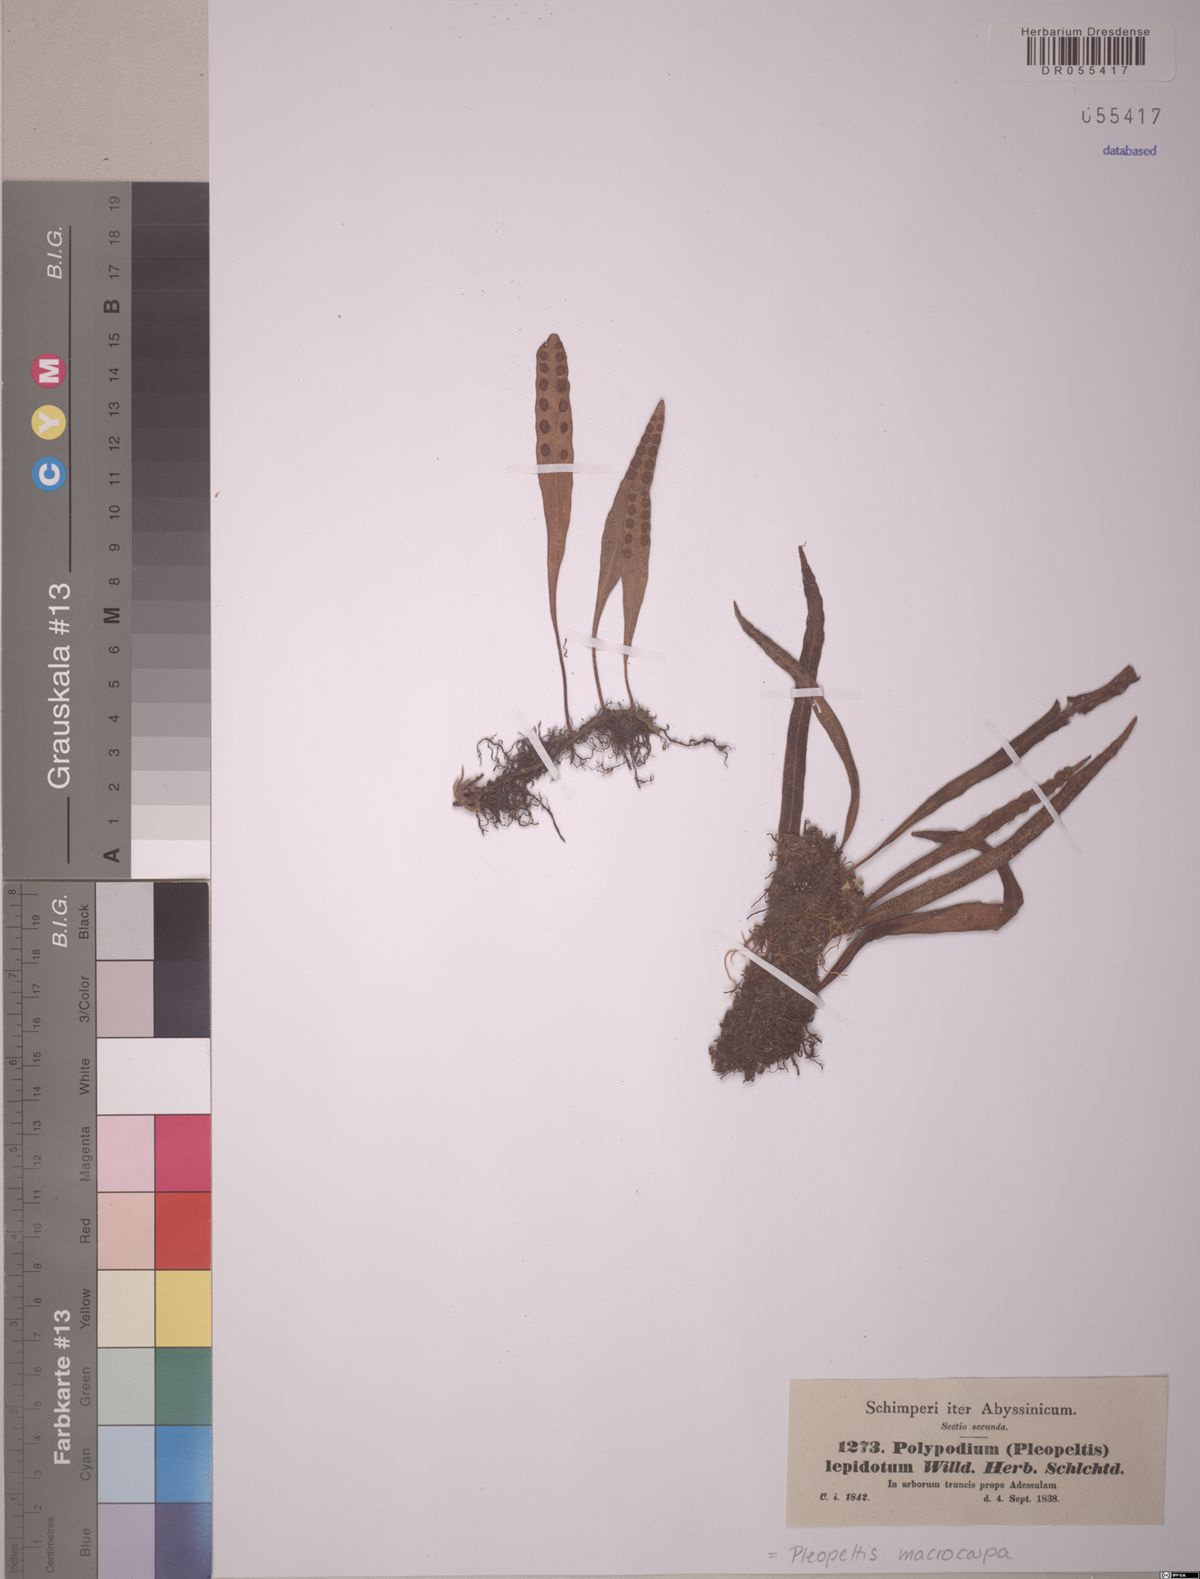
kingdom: Plantae
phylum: Tracheophyta
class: Polypodiopsida
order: Polypodiales
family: Polypodiaceae
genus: Pleopeltis
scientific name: Pleopeltis macrocarpa
